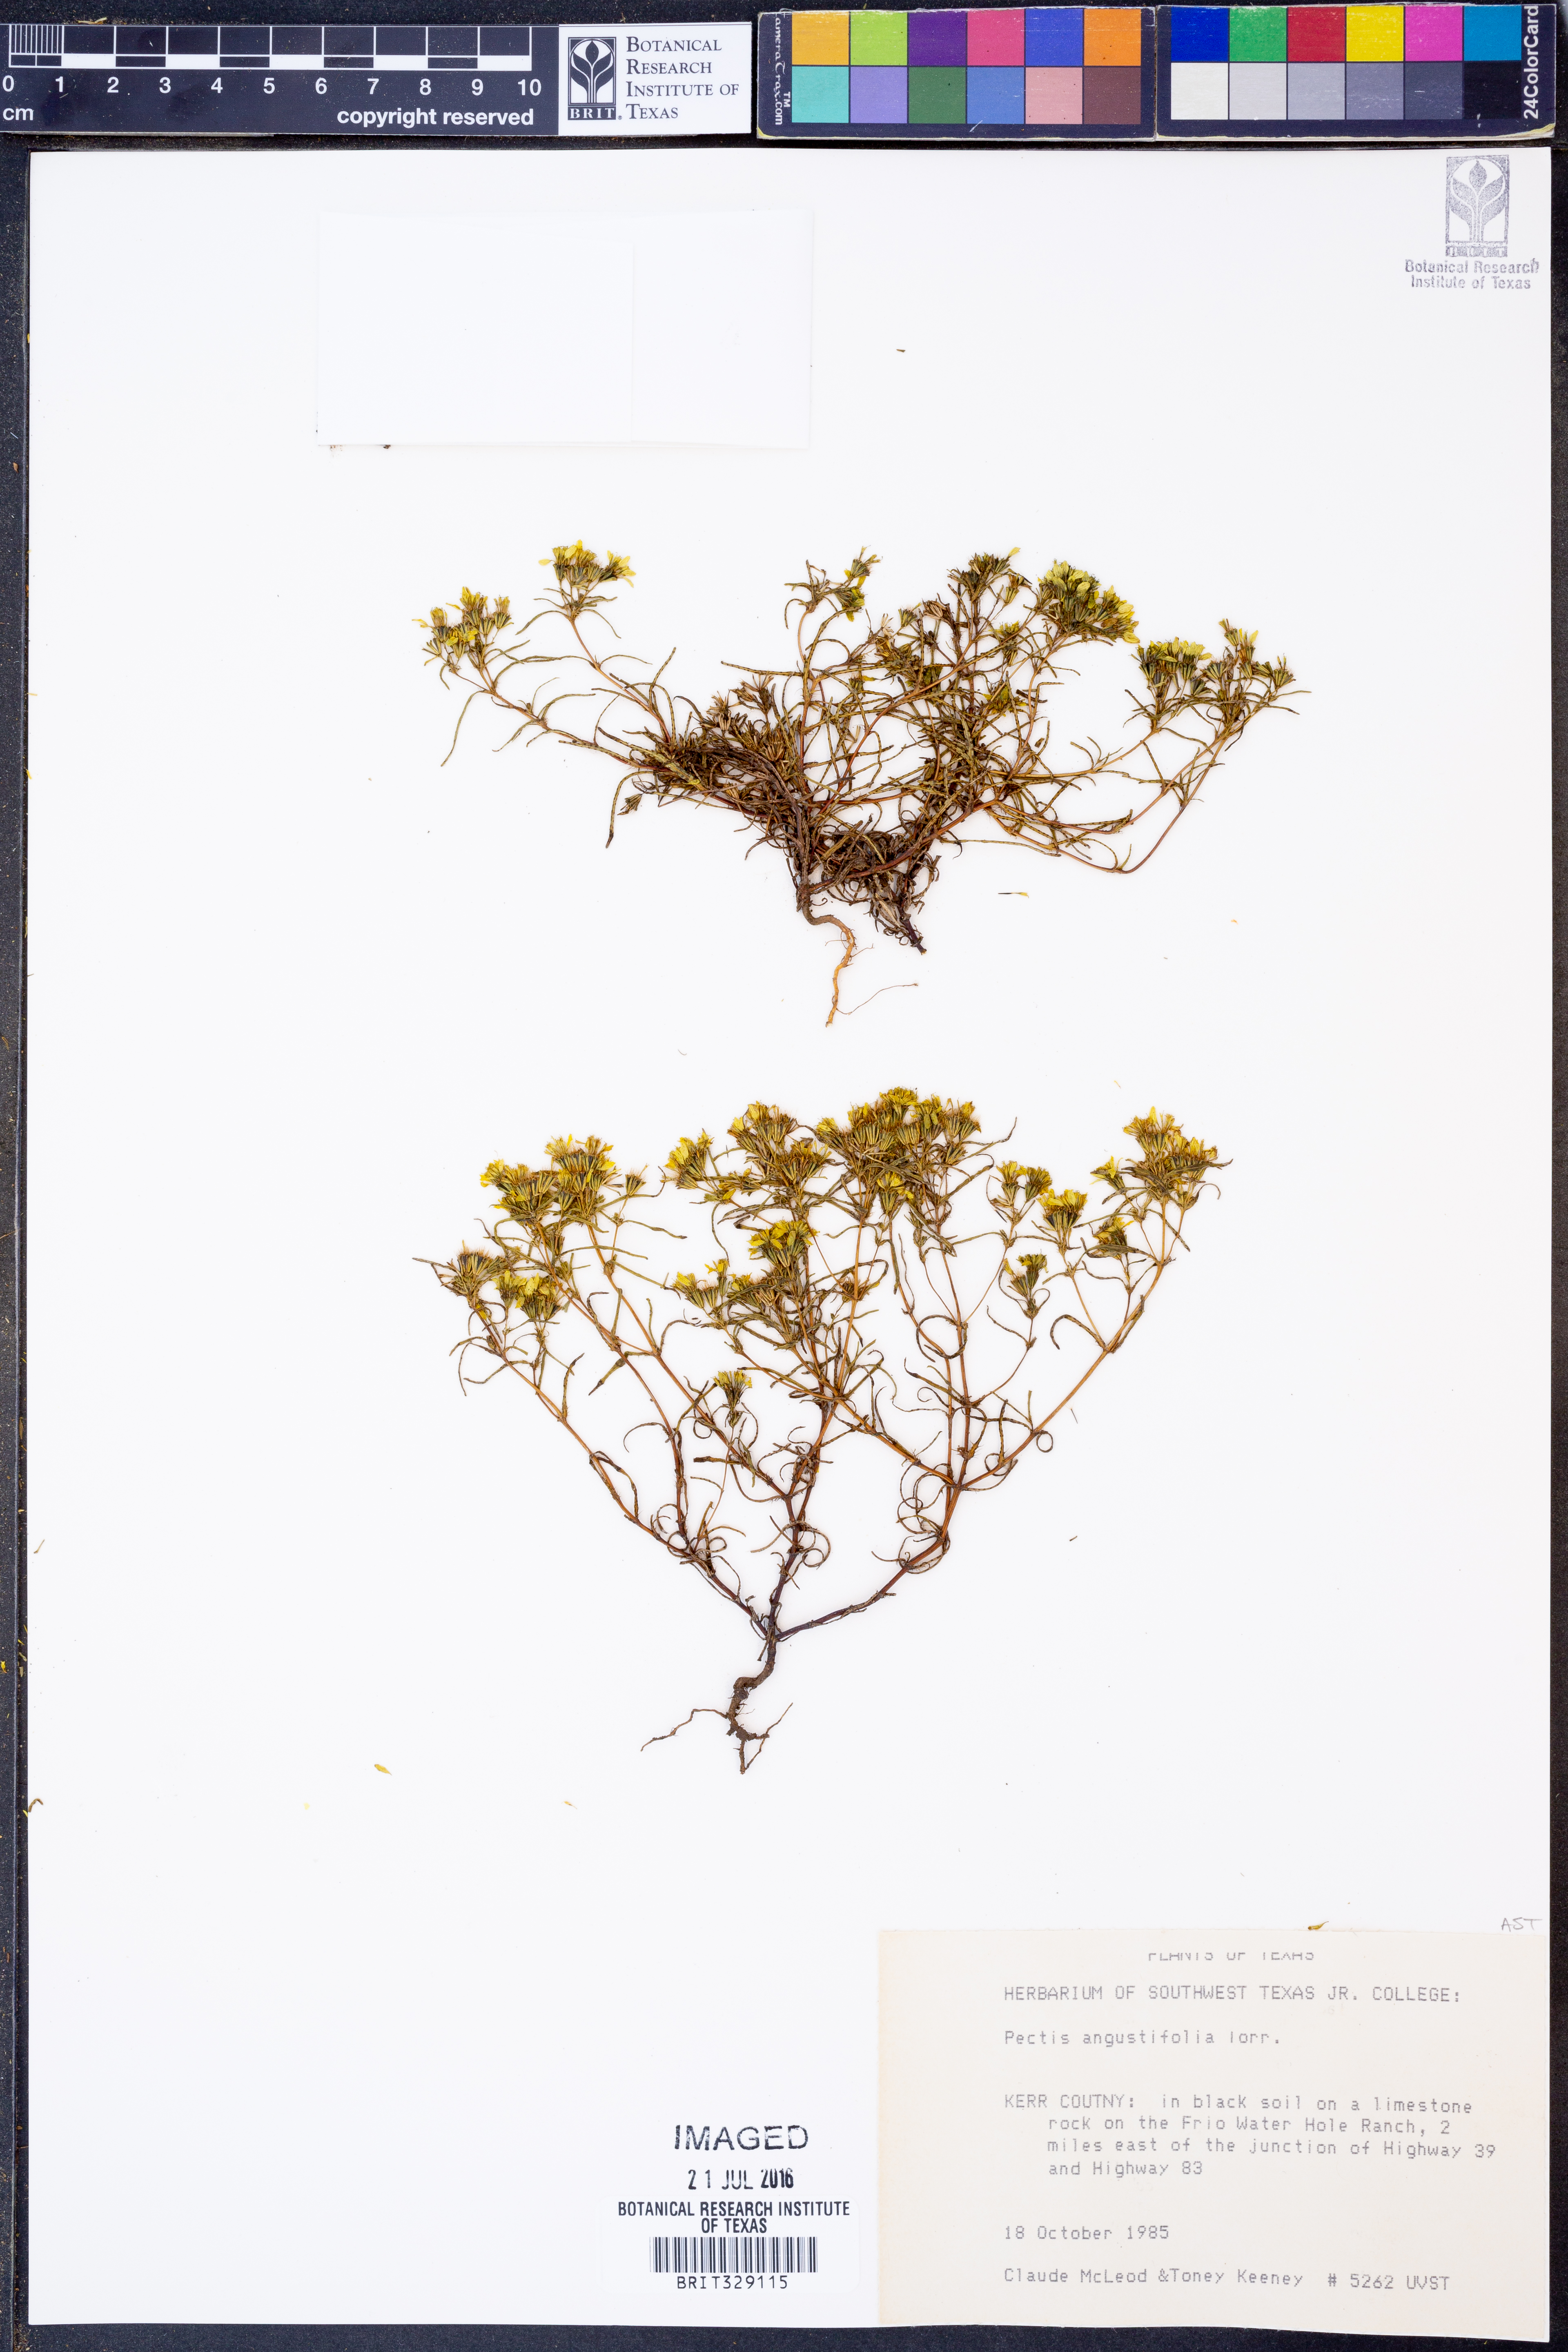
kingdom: Plantae
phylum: Tracheophyta
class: Magnoliopsida
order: Asterales
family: Asteraceae
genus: Pectis
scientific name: Pectis angustifolia
